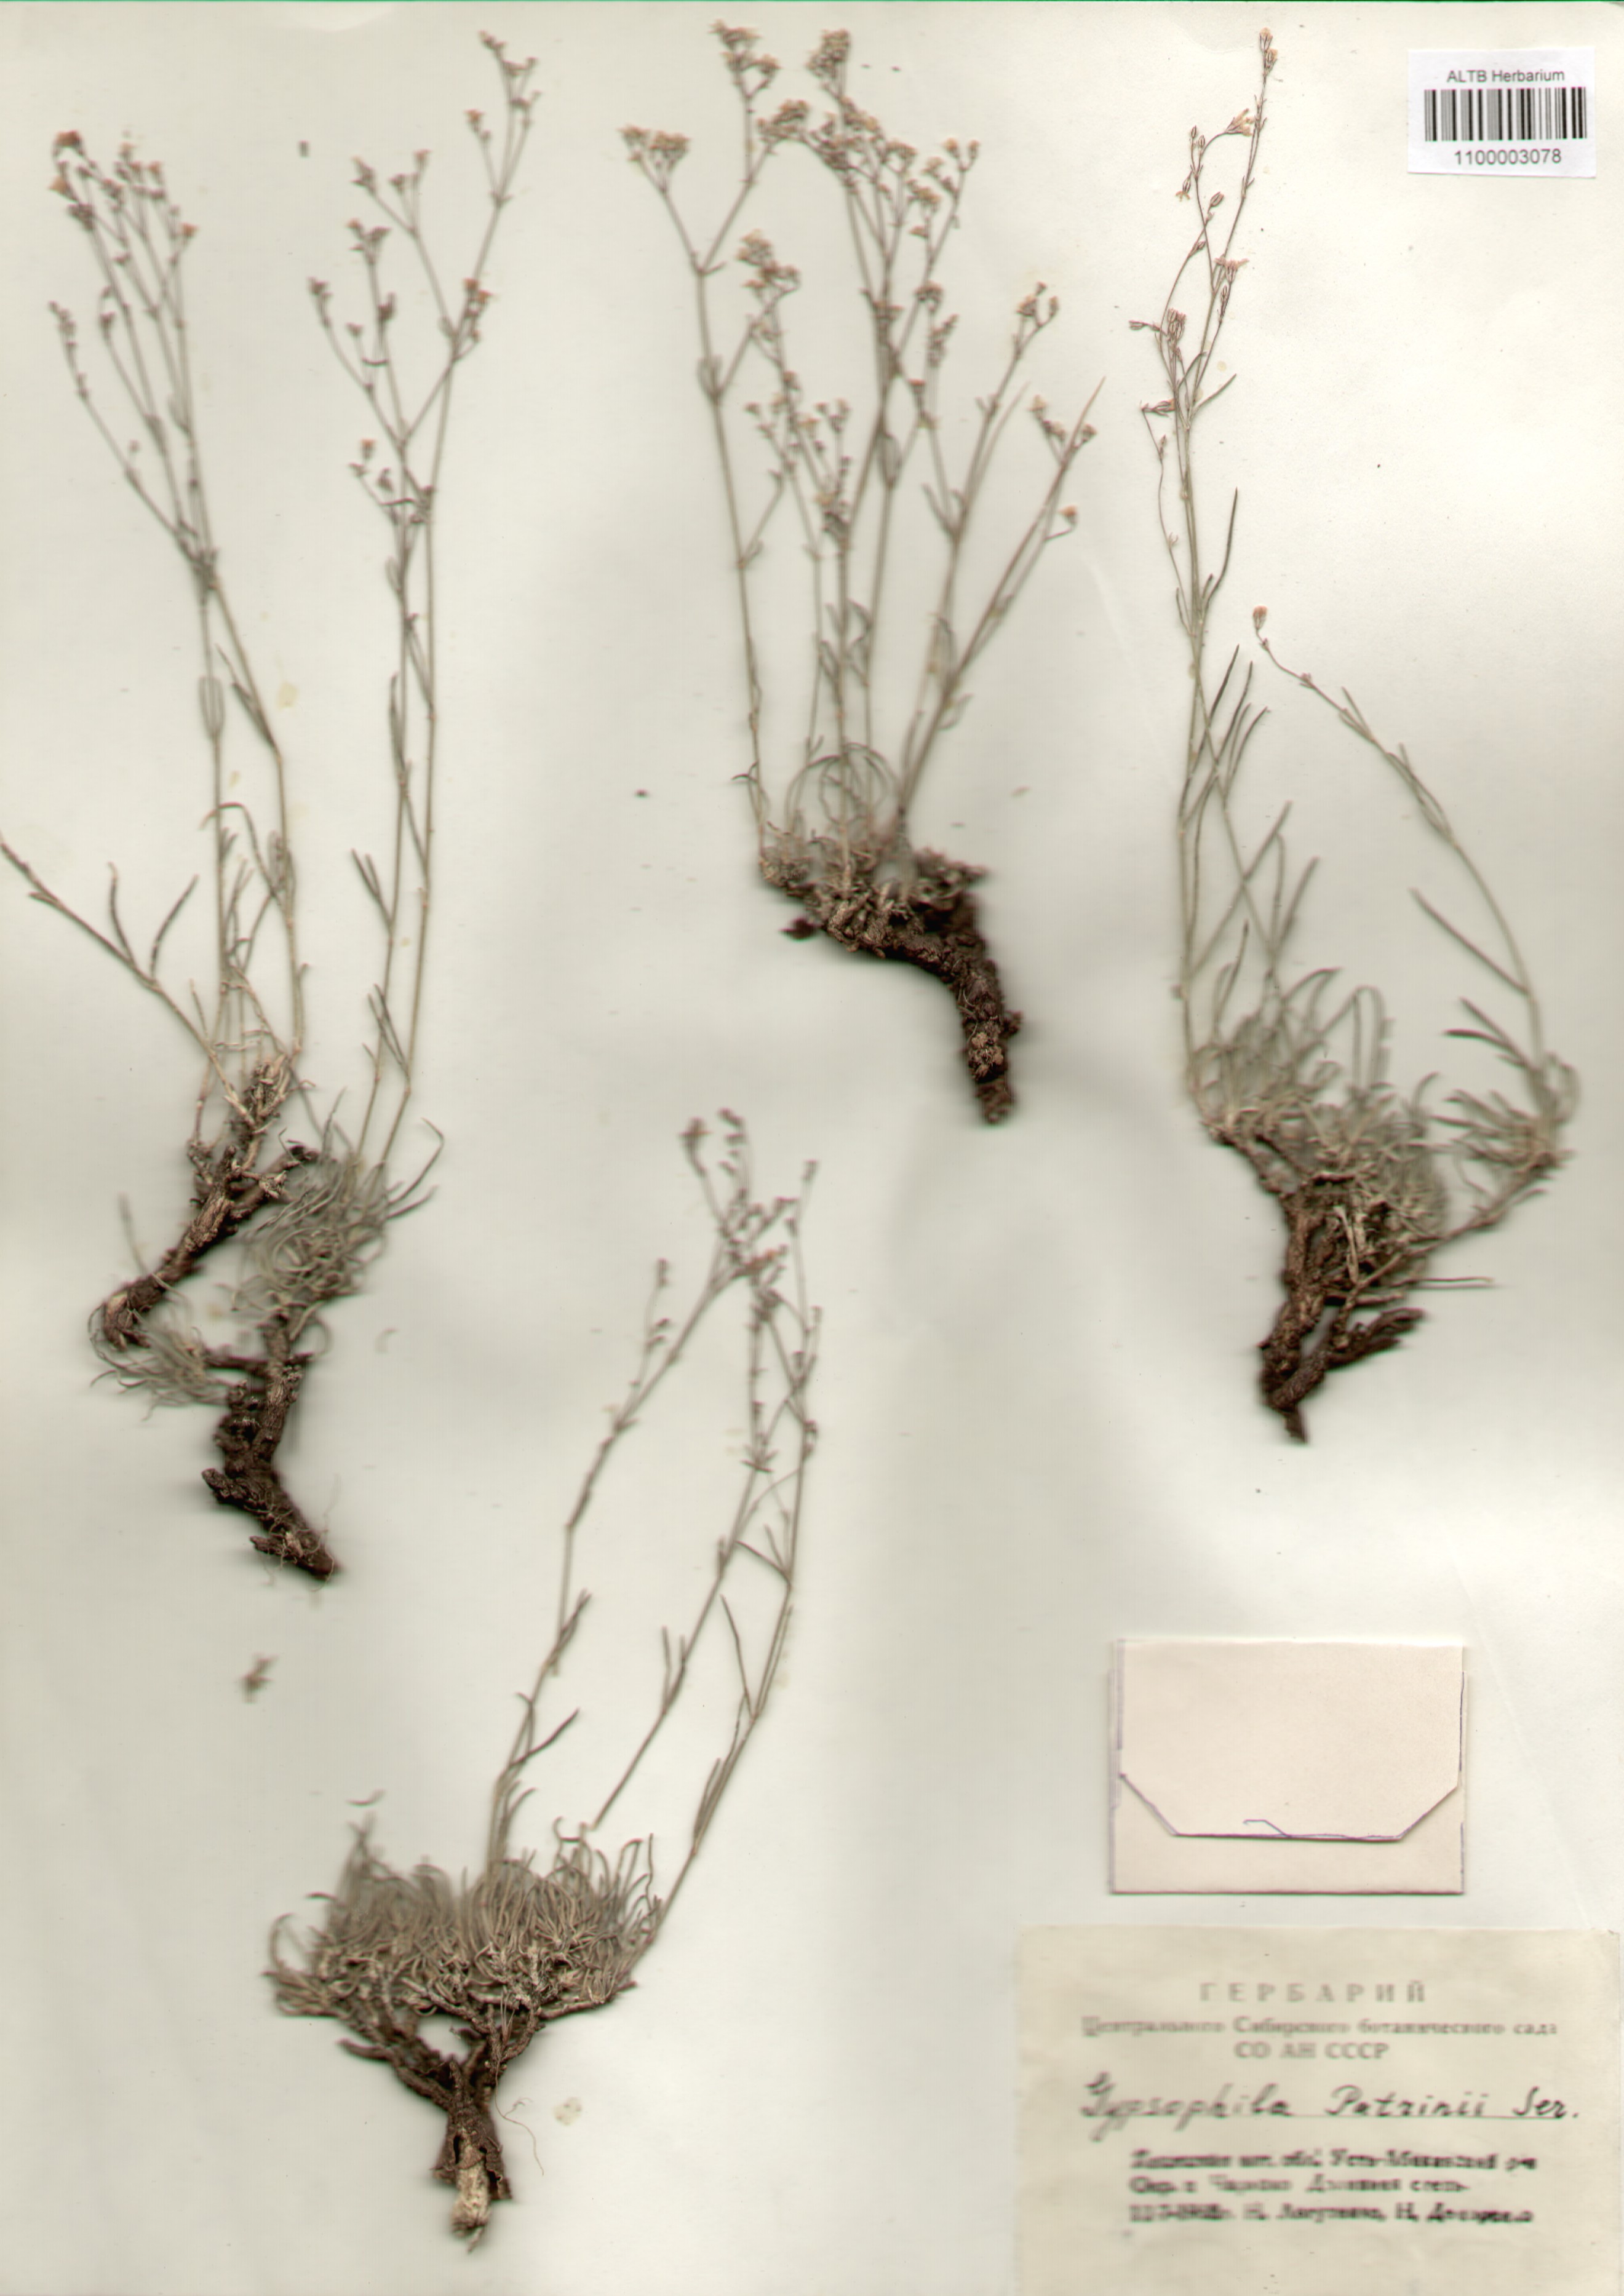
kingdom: Plantae
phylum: Tracheophyta
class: Magnoliopsida
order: Caryophyllales
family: Caryophyllaceae
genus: Gypsophila
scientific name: Gypsophila patrinii
